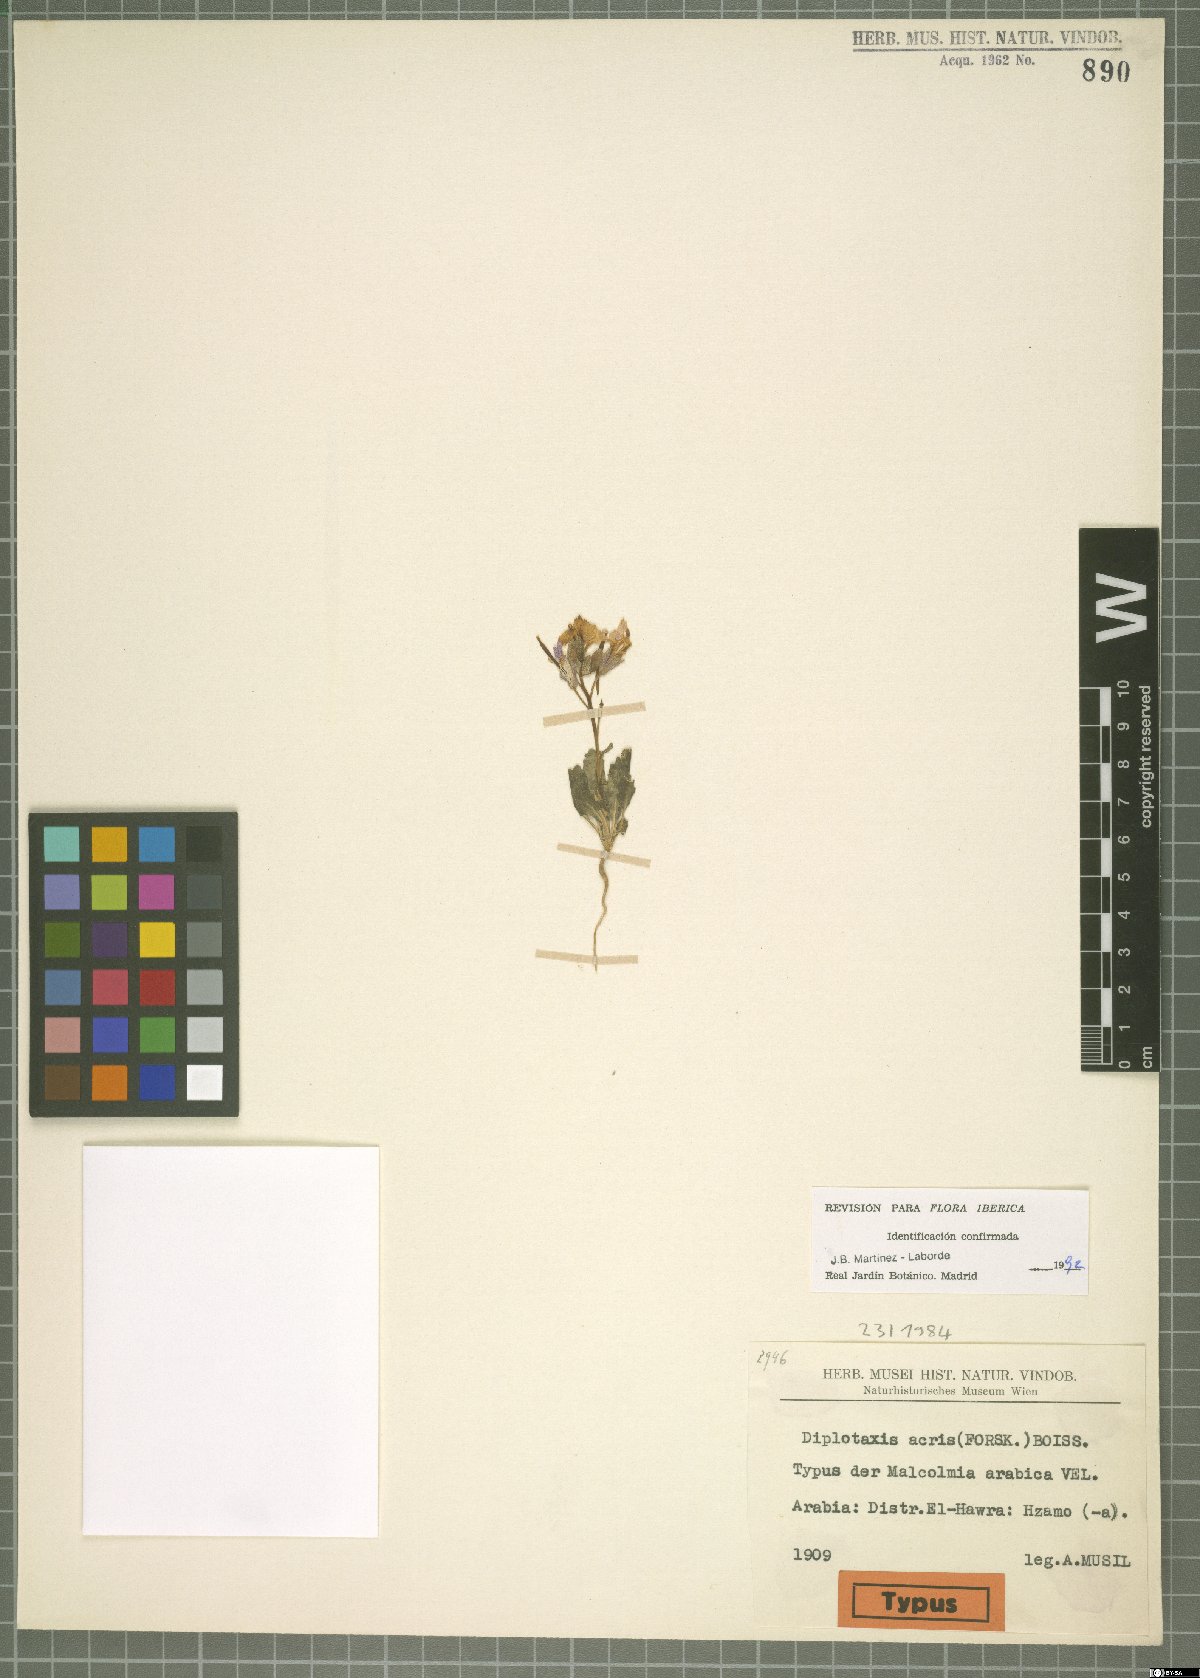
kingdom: Plantae
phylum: Tracheophyta
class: Magnoliopsida
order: Brassicales
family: Brassicaceae
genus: Diplotaxis
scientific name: Diplotaxis acris
